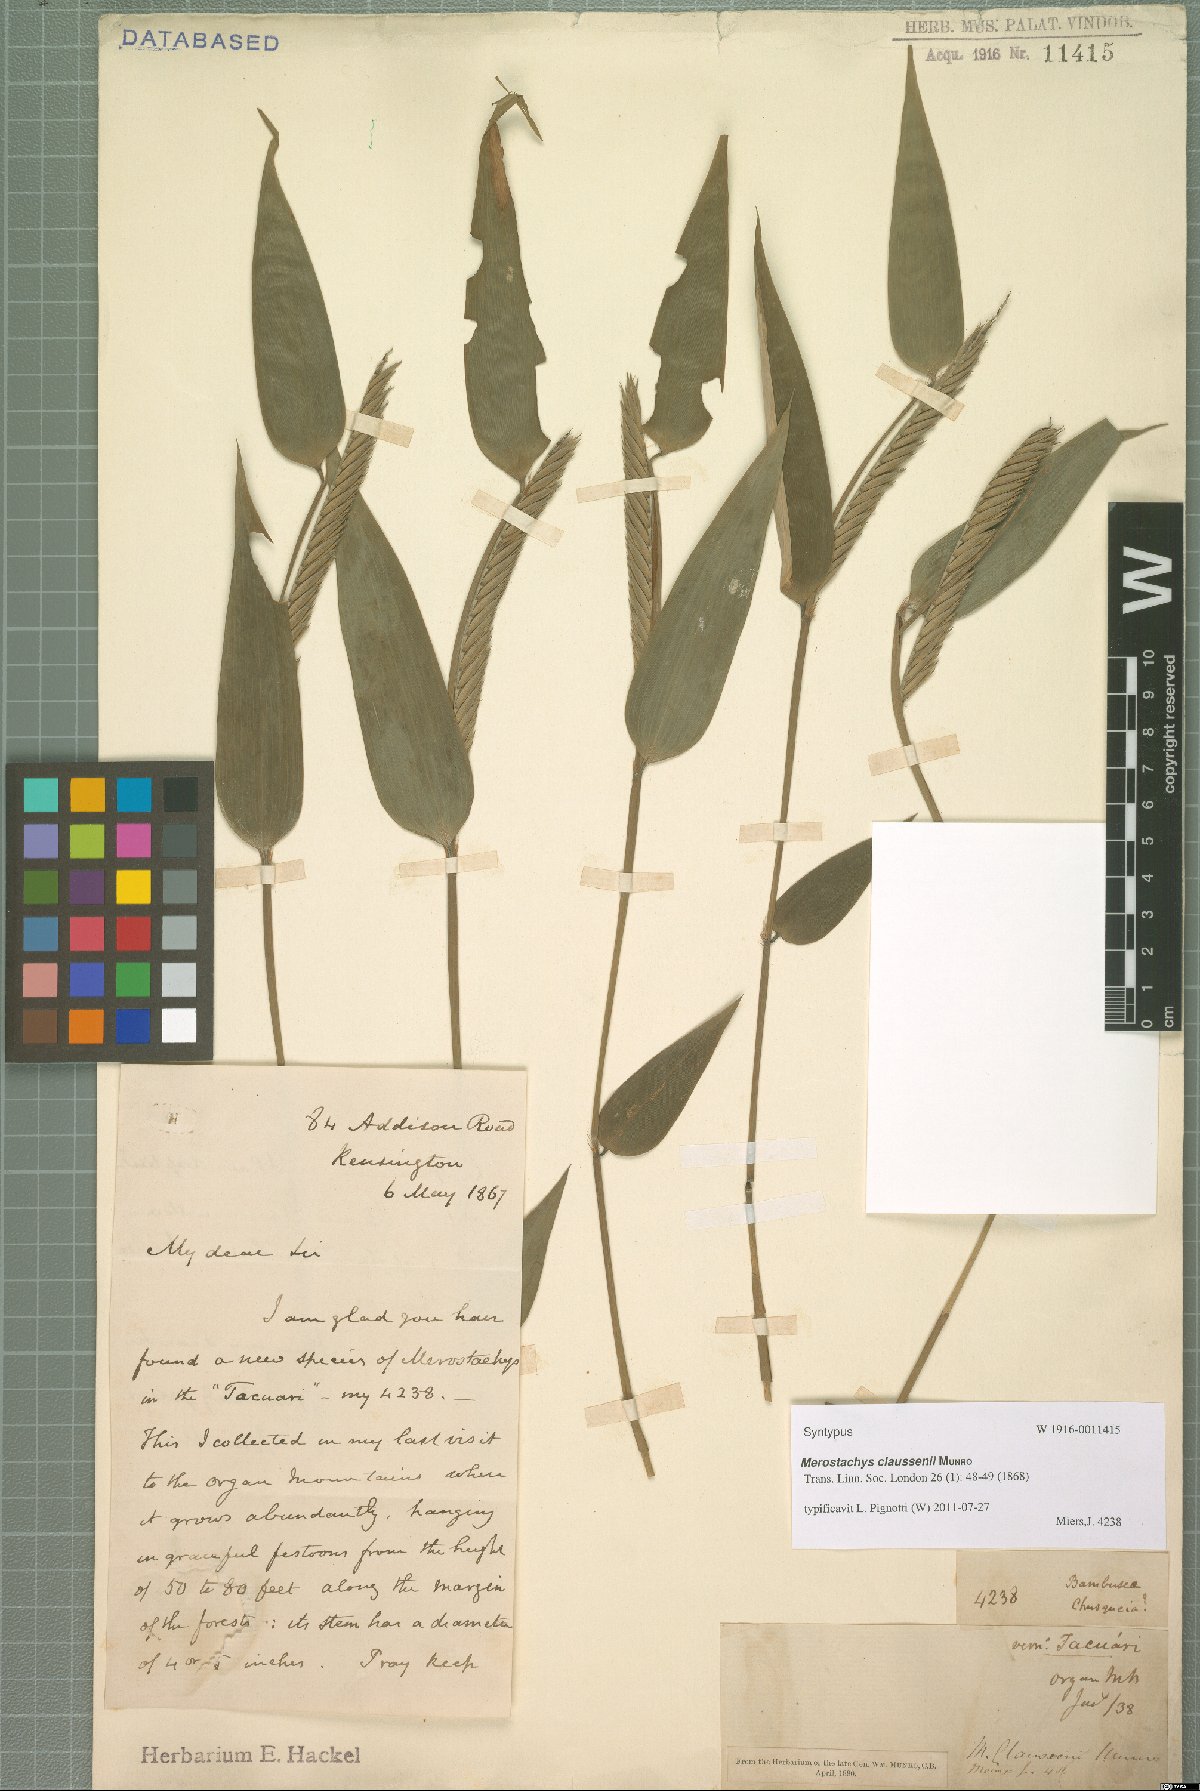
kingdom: Plantae
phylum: Tracheophyta
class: Liliopsida
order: Poales
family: Poaceae
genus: Merostachys
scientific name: Merostachys claussenii
